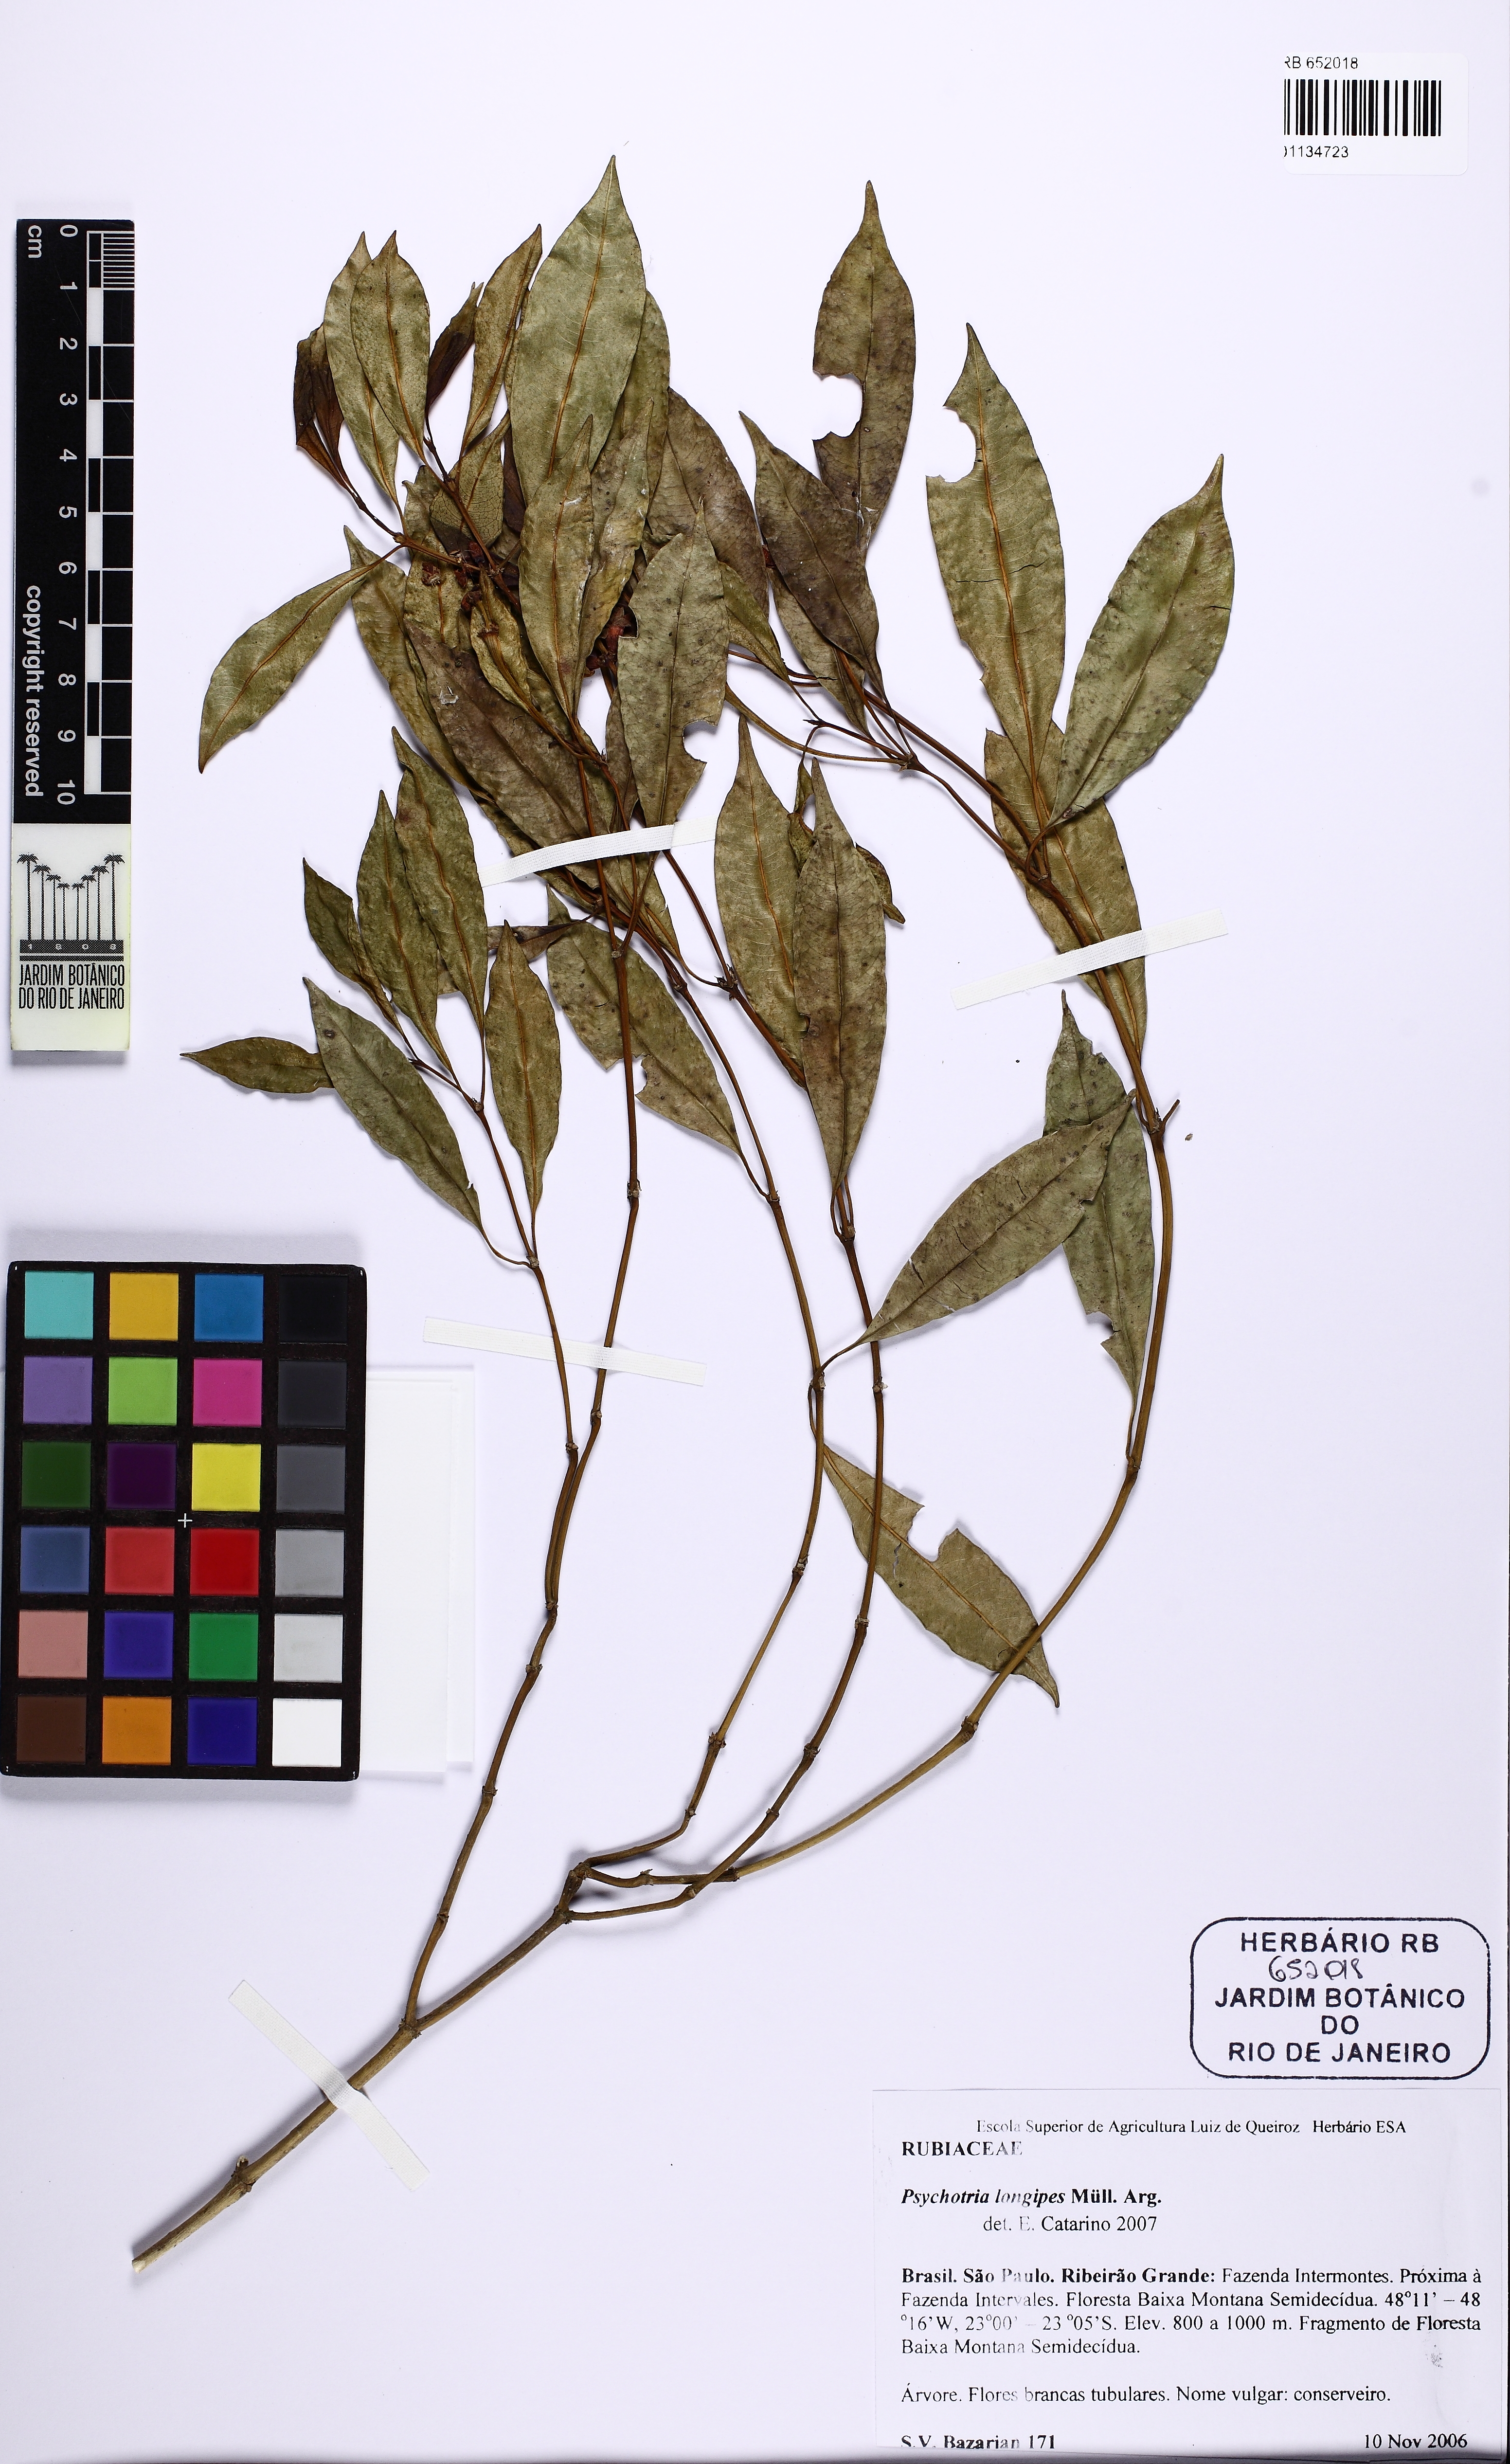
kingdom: Plantae
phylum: Tracheophyta
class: Magnoliopsida
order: Gentianales
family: Rubiaceae
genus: Palicourea
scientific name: Palicourea sessilis
